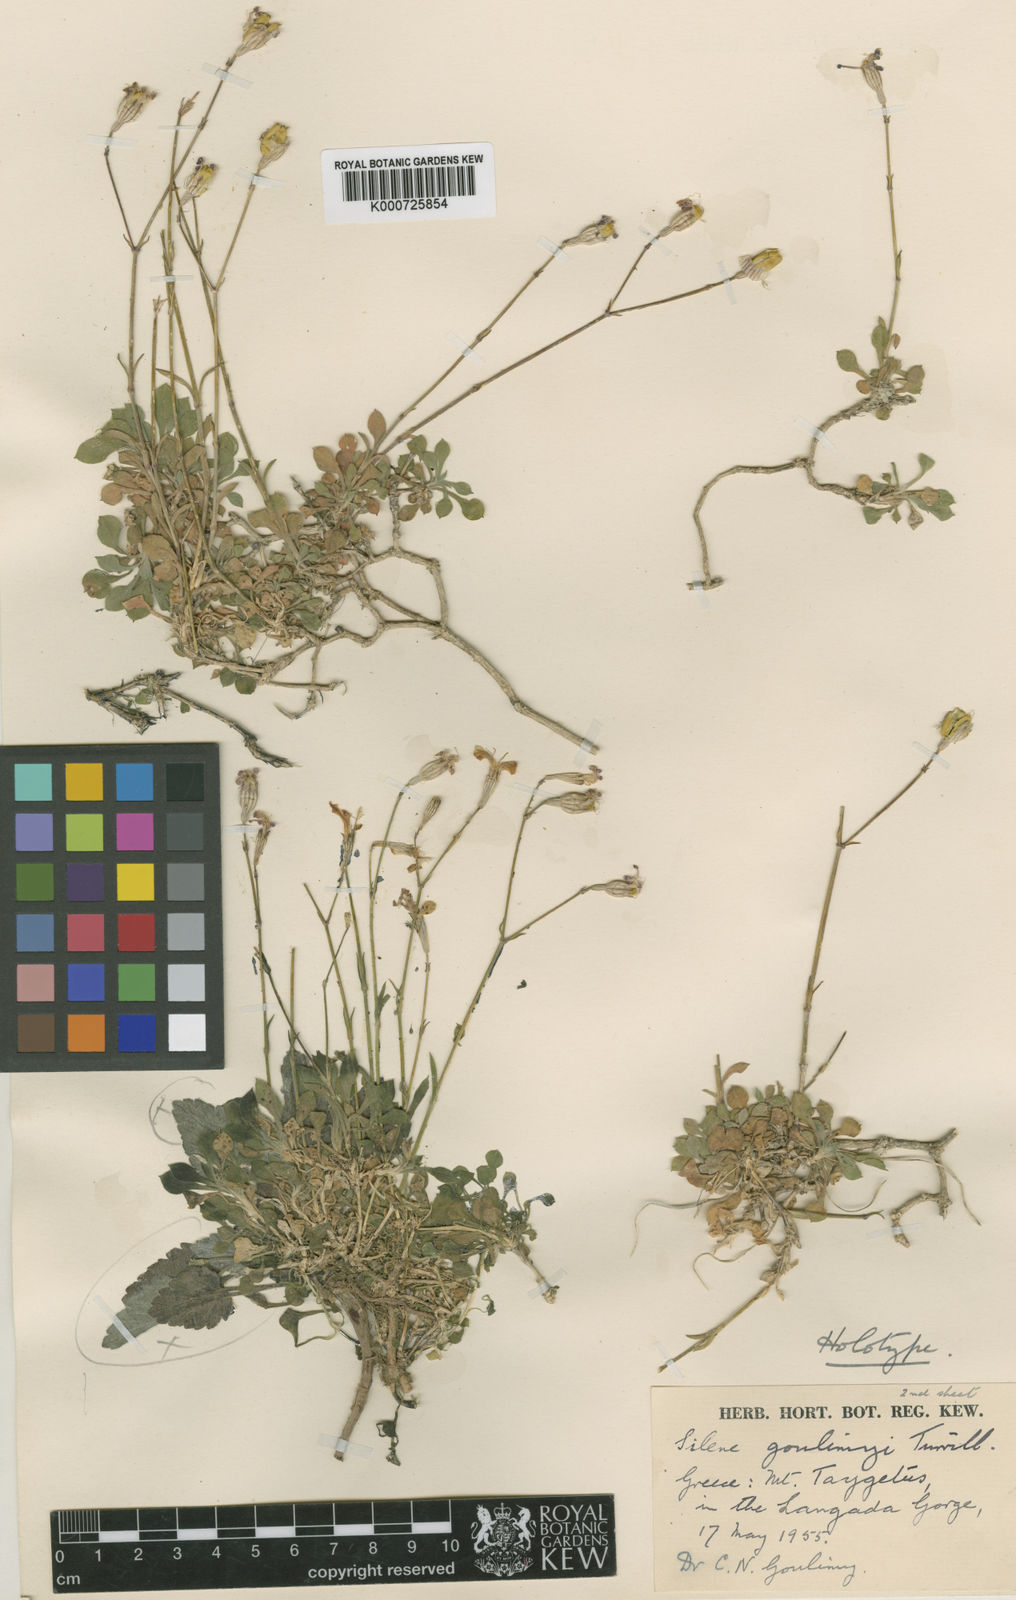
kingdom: Plantae
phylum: Tracheophyta
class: Magnoliopsida
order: Caryophyllales
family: Caryophyllaceae
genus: Silene
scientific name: Silene goulimyi
